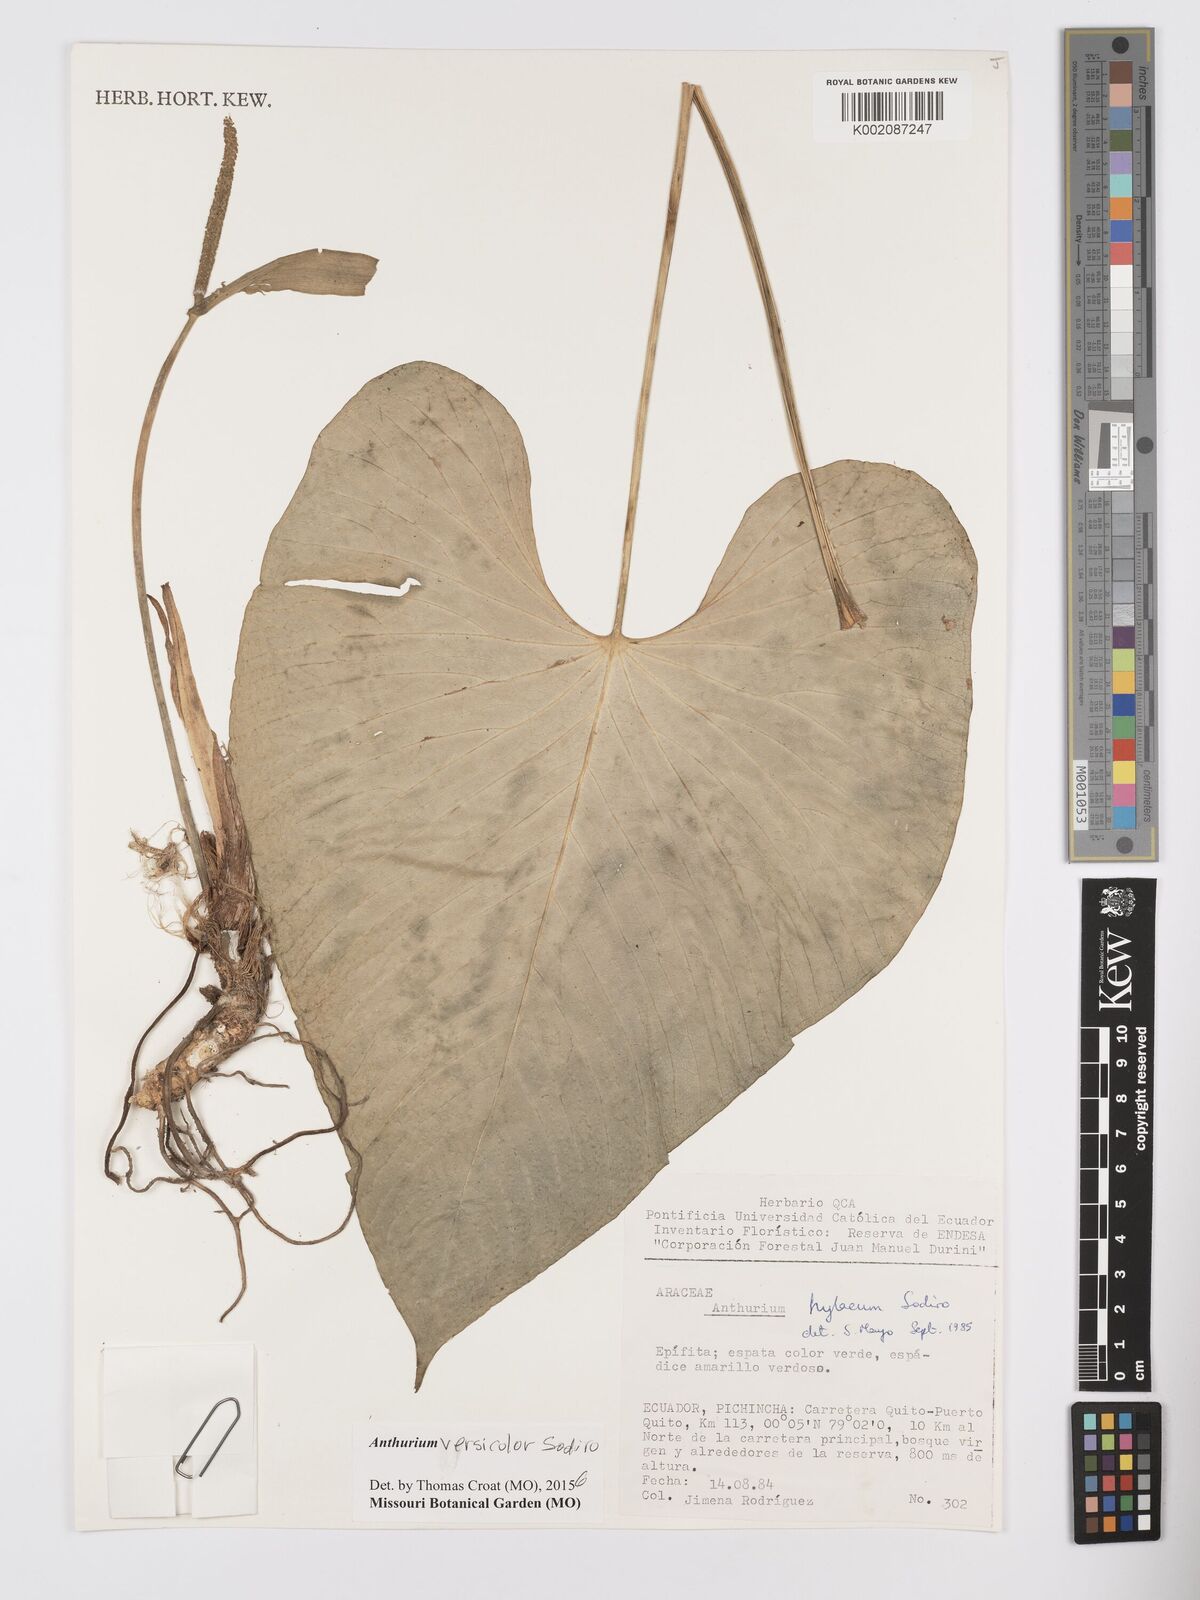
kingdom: Plantae
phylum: Tracheophyta
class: Liliopsida
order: Alismatales
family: Araceae
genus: Anthurium
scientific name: Anthurium versicolor
